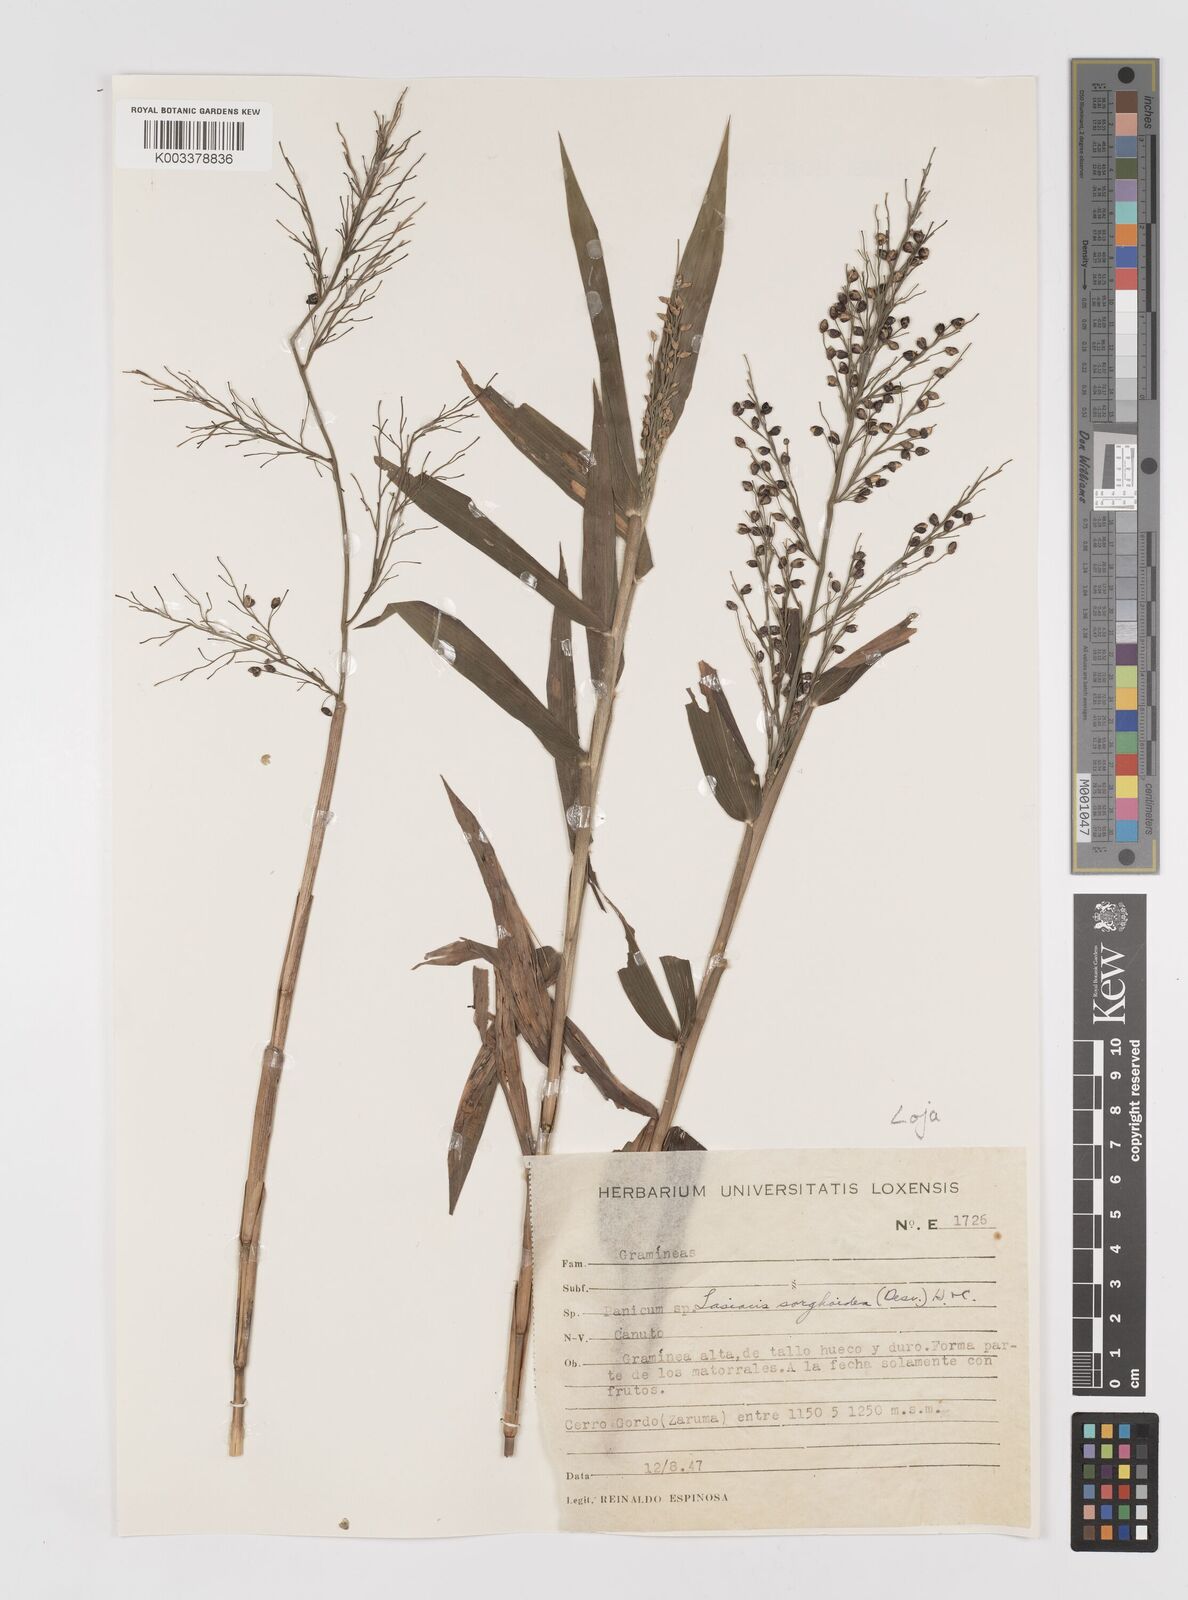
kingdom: Plantae
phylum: Tracheophyta
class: Liliopsida
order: Poales
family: Poaceae
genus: Lasiacis
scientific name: Lasiacis maculata
